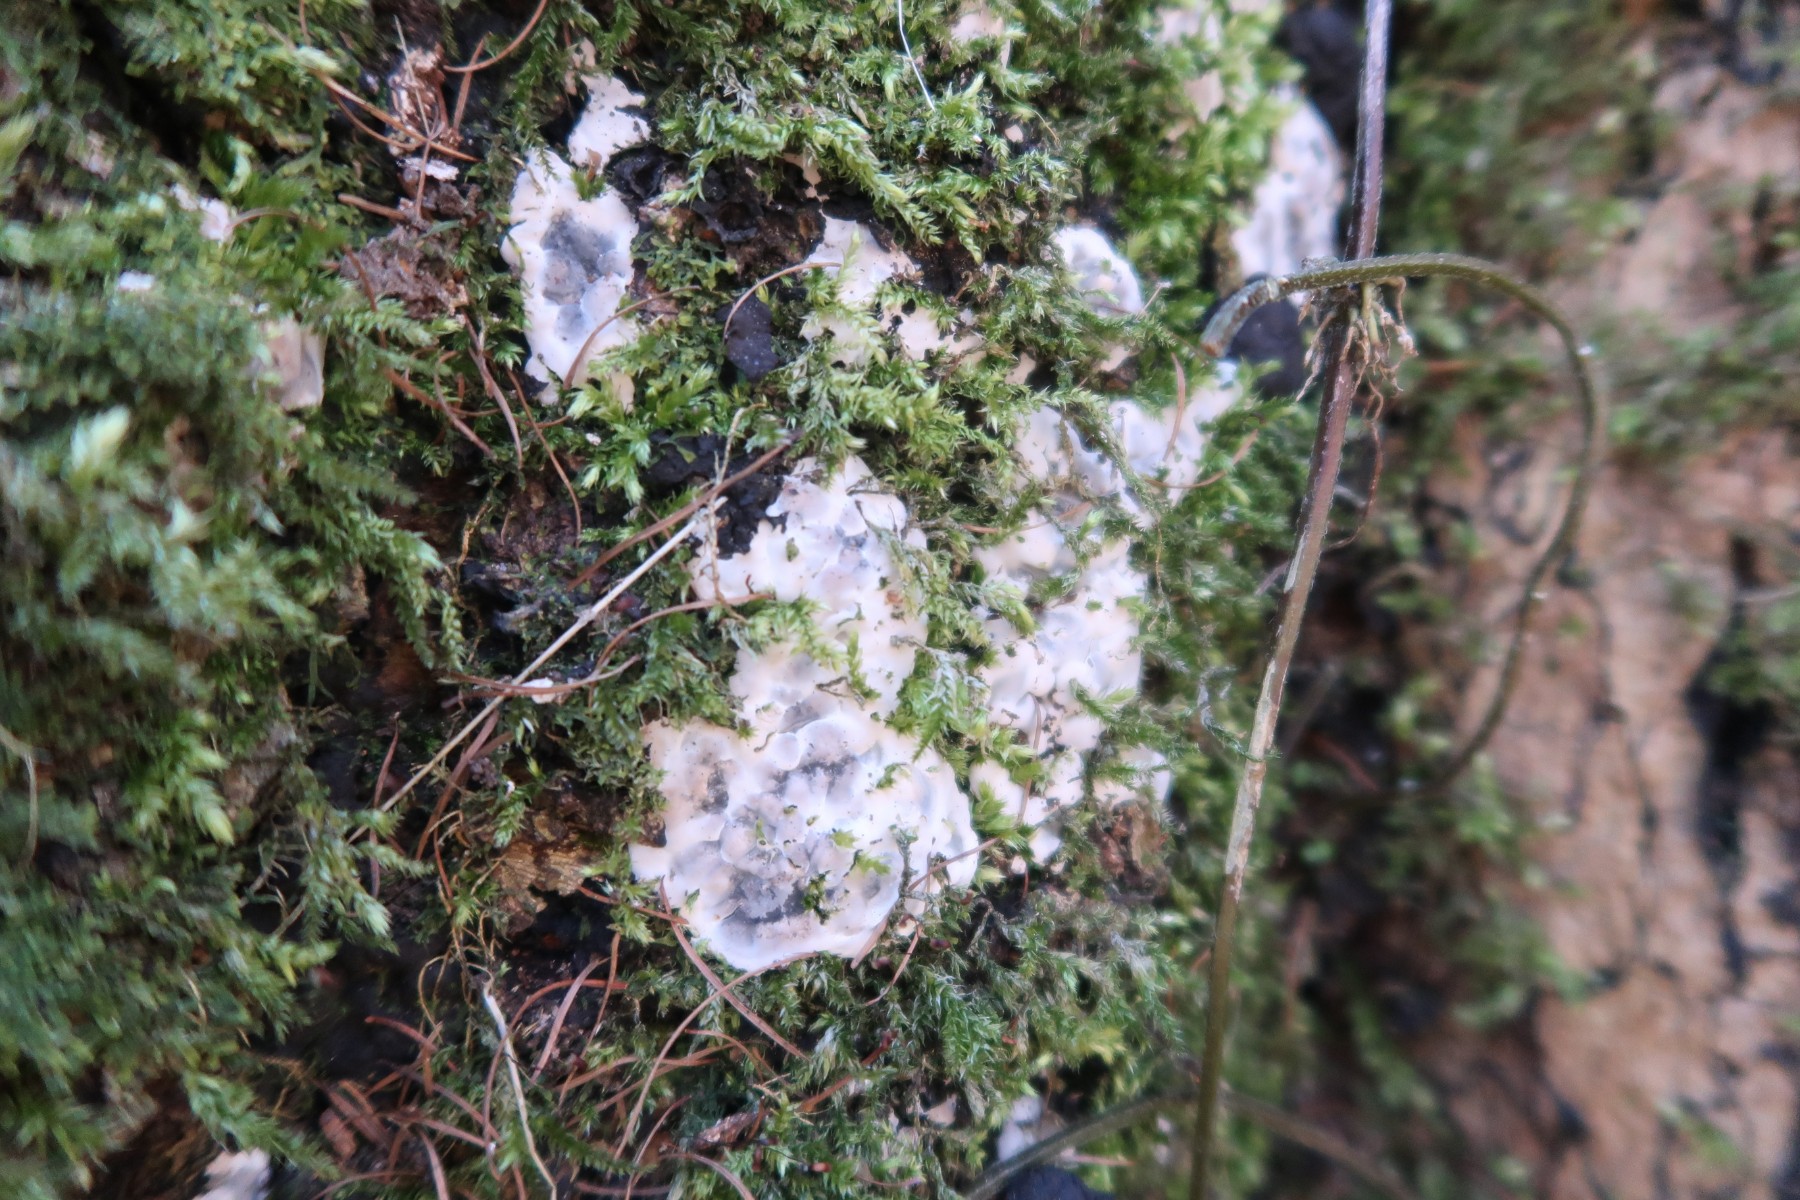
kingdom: Fungi
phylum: Ascomycota
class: Sordariomycetes
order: Xylariales
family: Xylariaceae
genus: Kretzschmaria
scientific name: Kretzschmaria deusta
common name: stor kulsvamp
